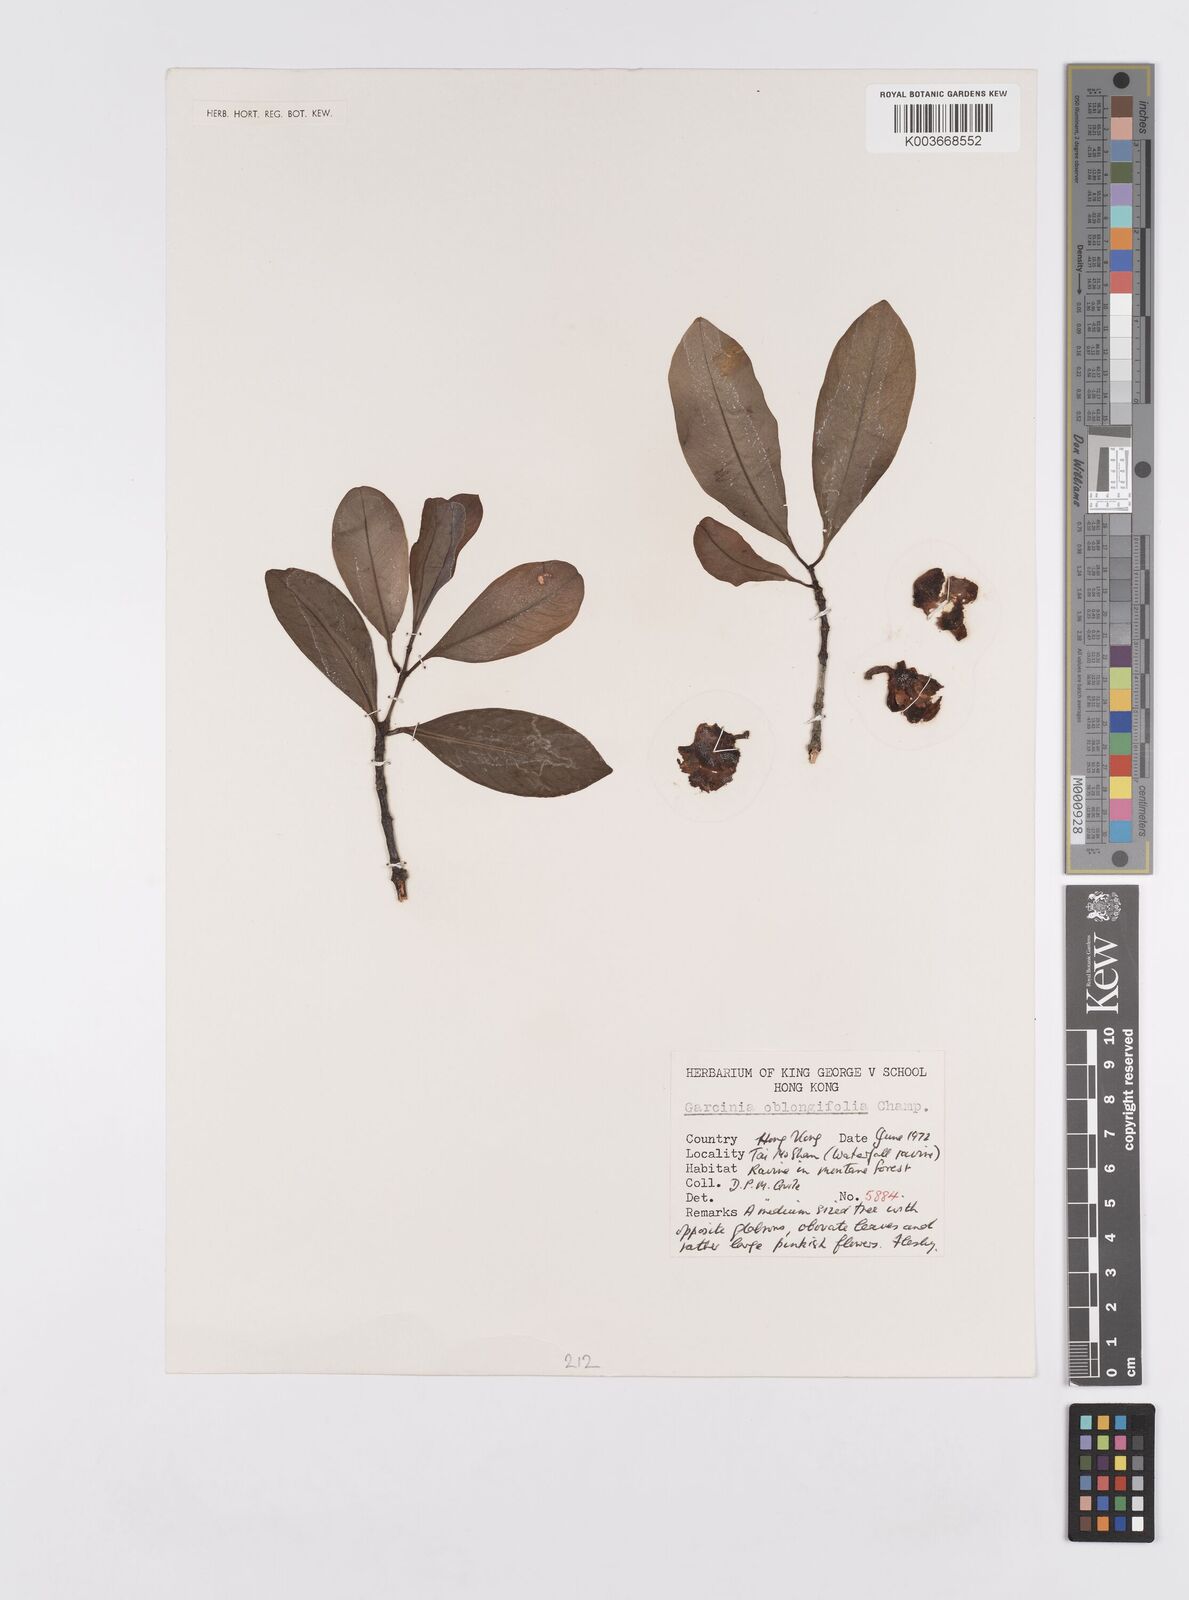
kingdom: Plantae
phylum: Tracheophyta
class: Magnoliopsida
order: Malpighiales
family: Clusiaceae
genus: Garcinia
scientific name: Garcinia oblongifolia
